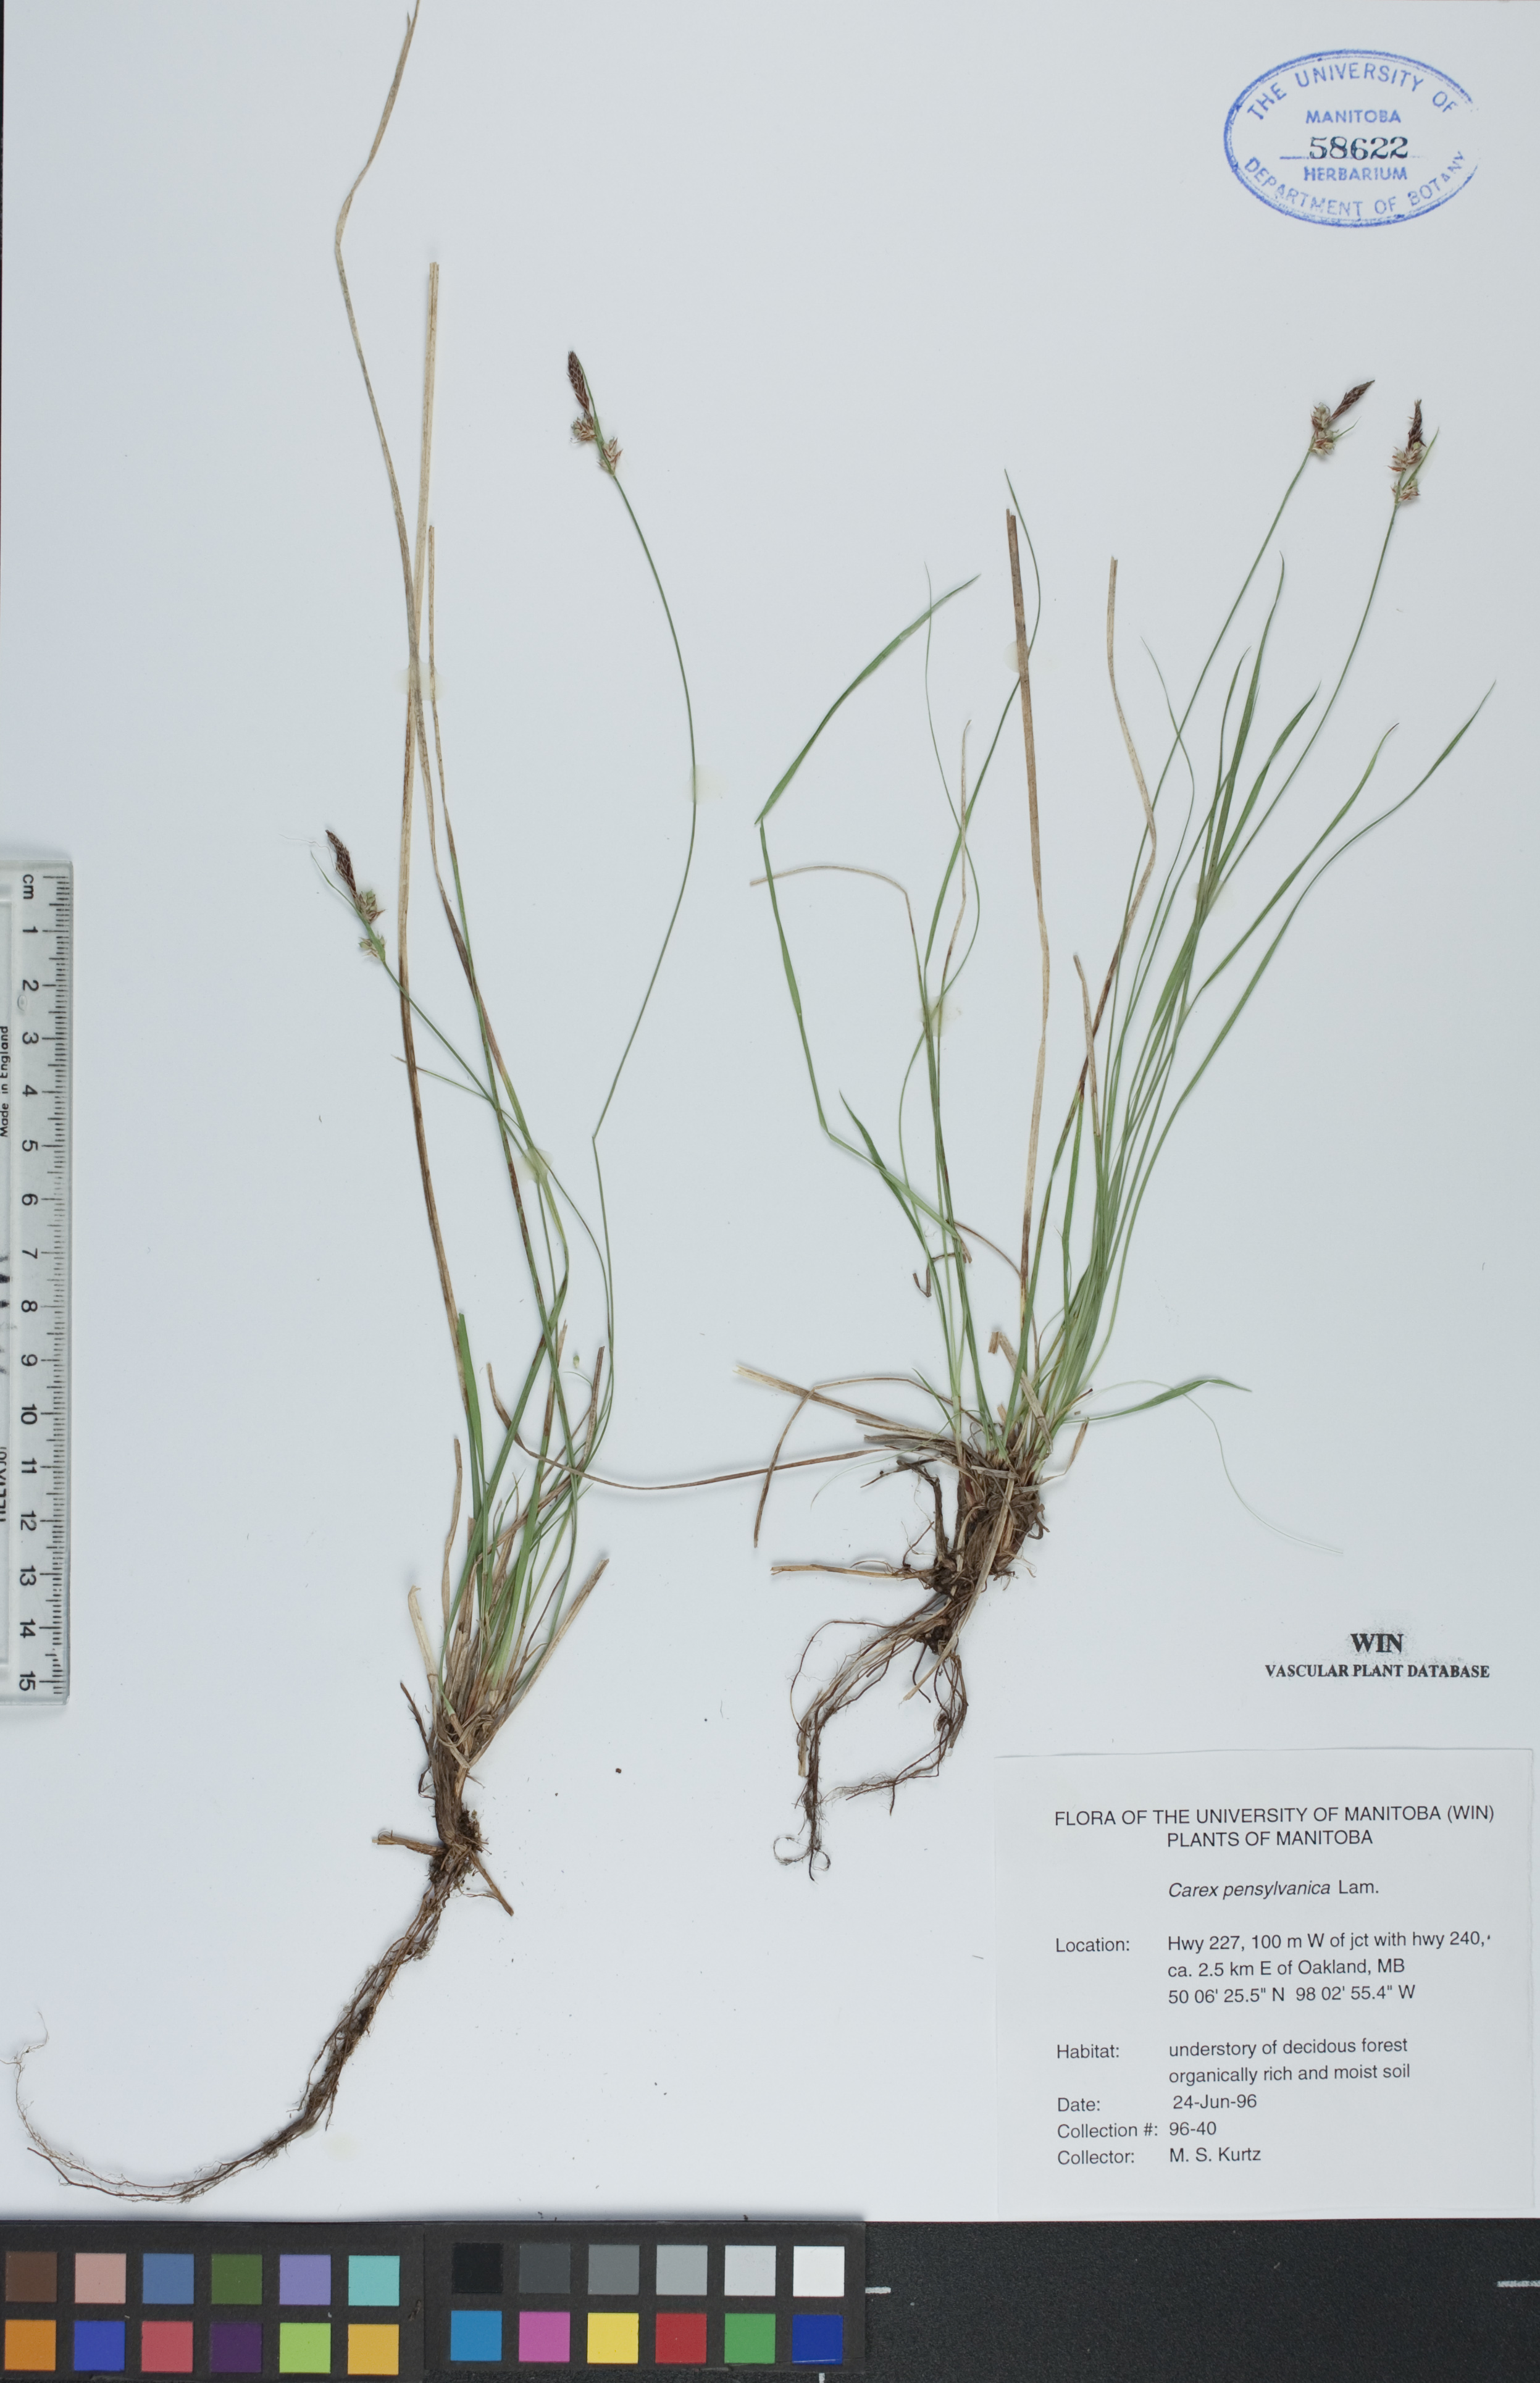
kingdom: Plantae
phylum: Tracheophyta
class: Liliopsida
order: Poales
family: Cyperaceae
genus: Carex
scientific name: Carex pensylvanica
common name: Common oak sedge
